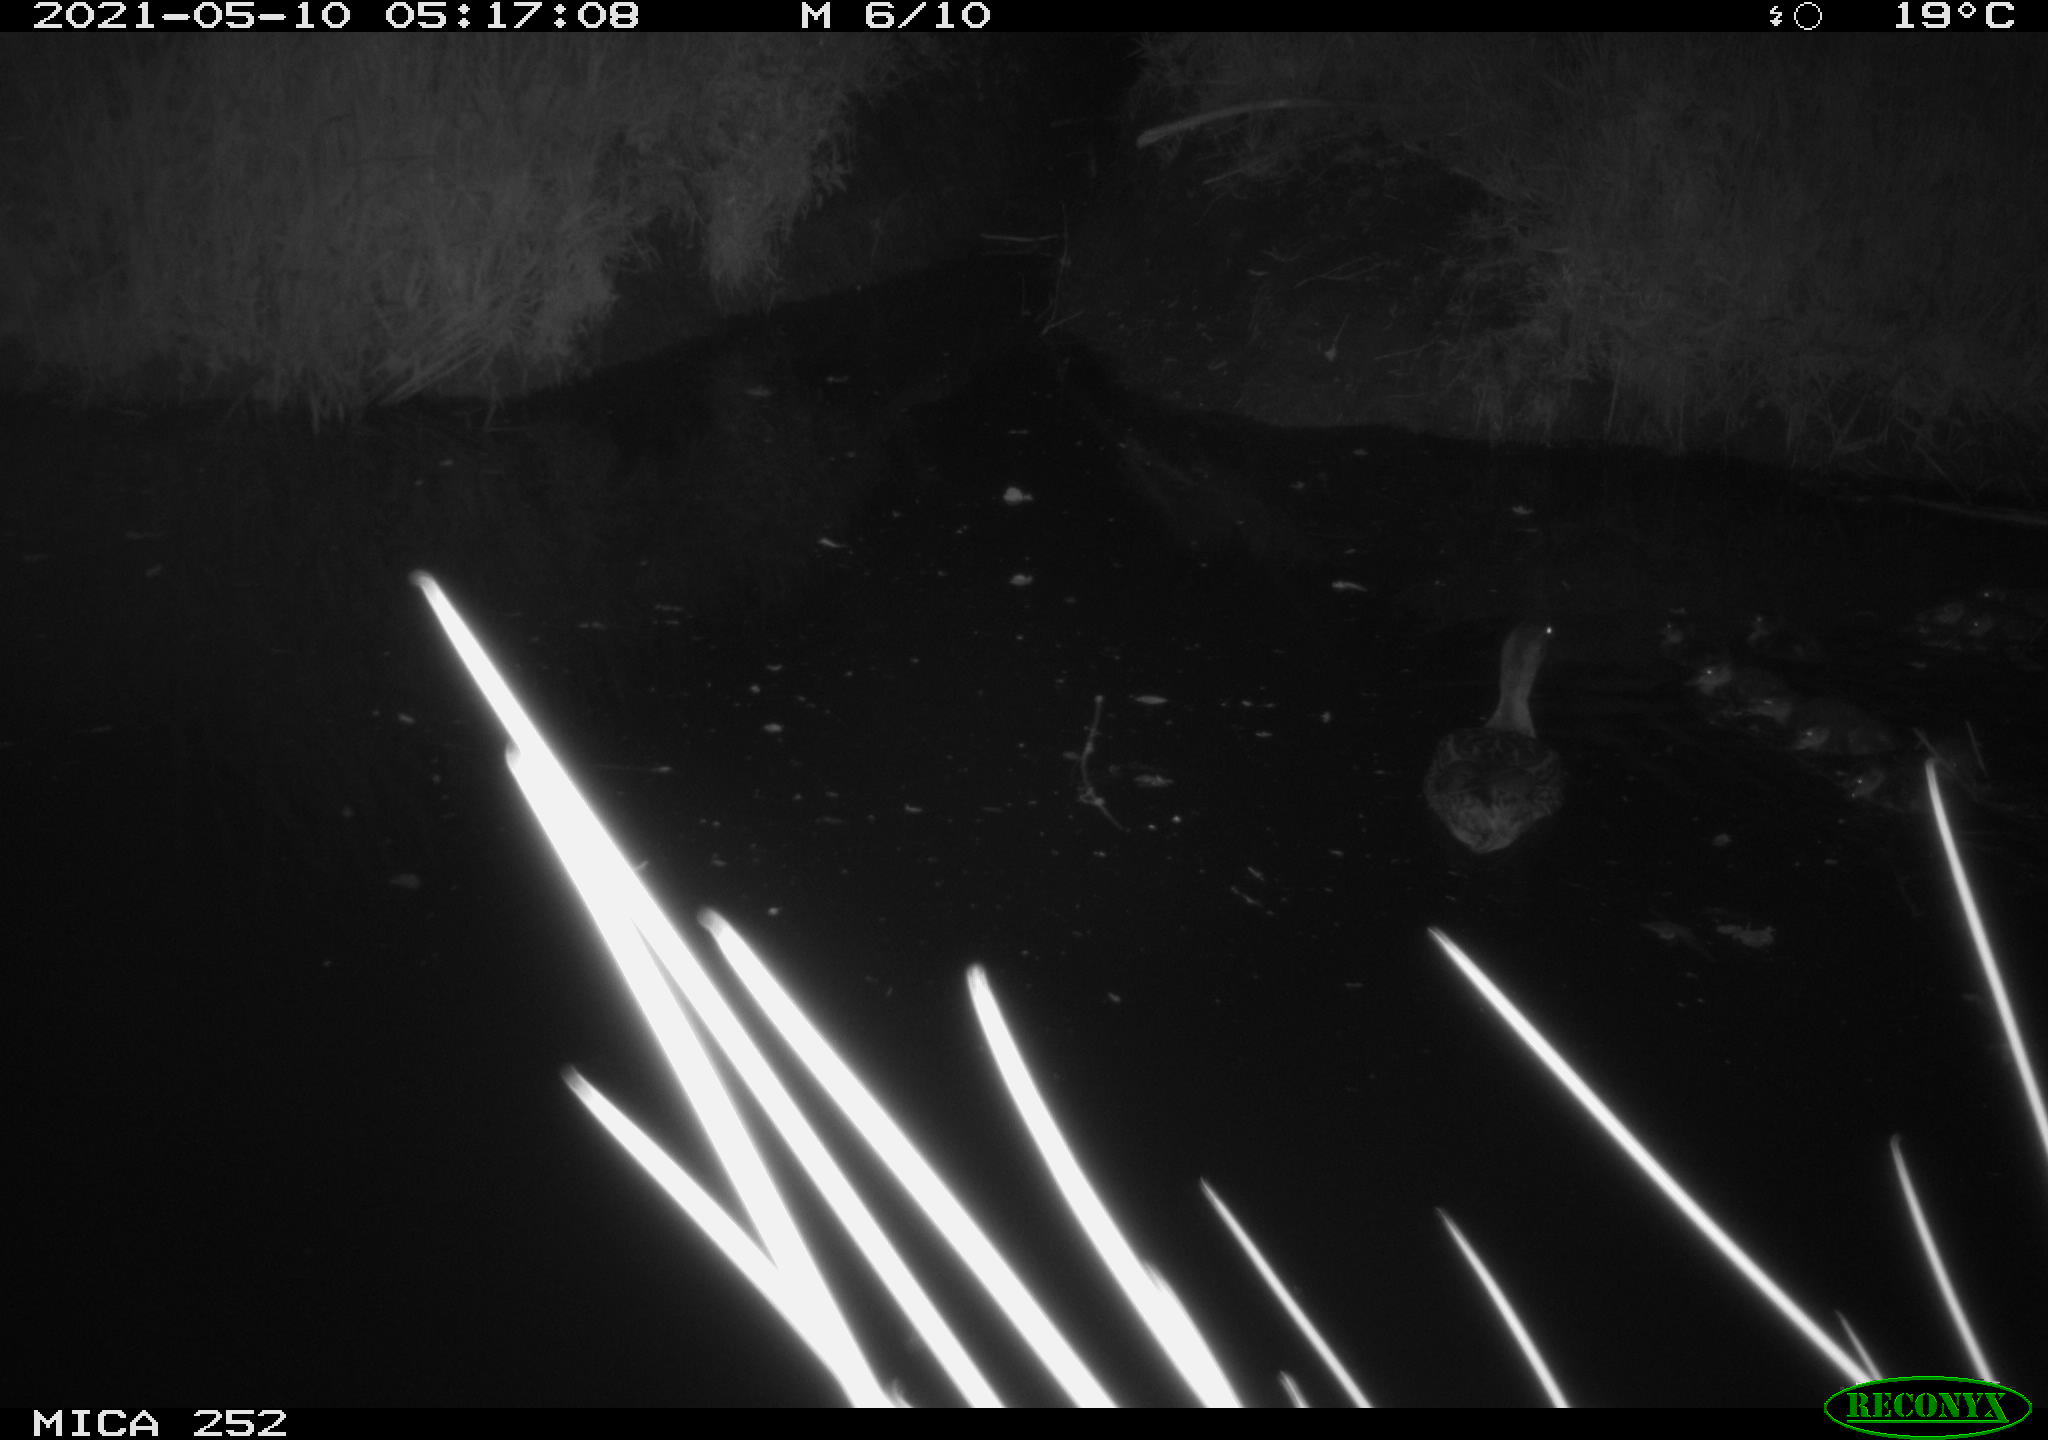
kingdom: Animalia
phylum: Chordata
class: Aves
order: Anseriformes
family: Anatidae
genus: Anas
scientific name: Anas platyrhynchos
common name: Mallard
